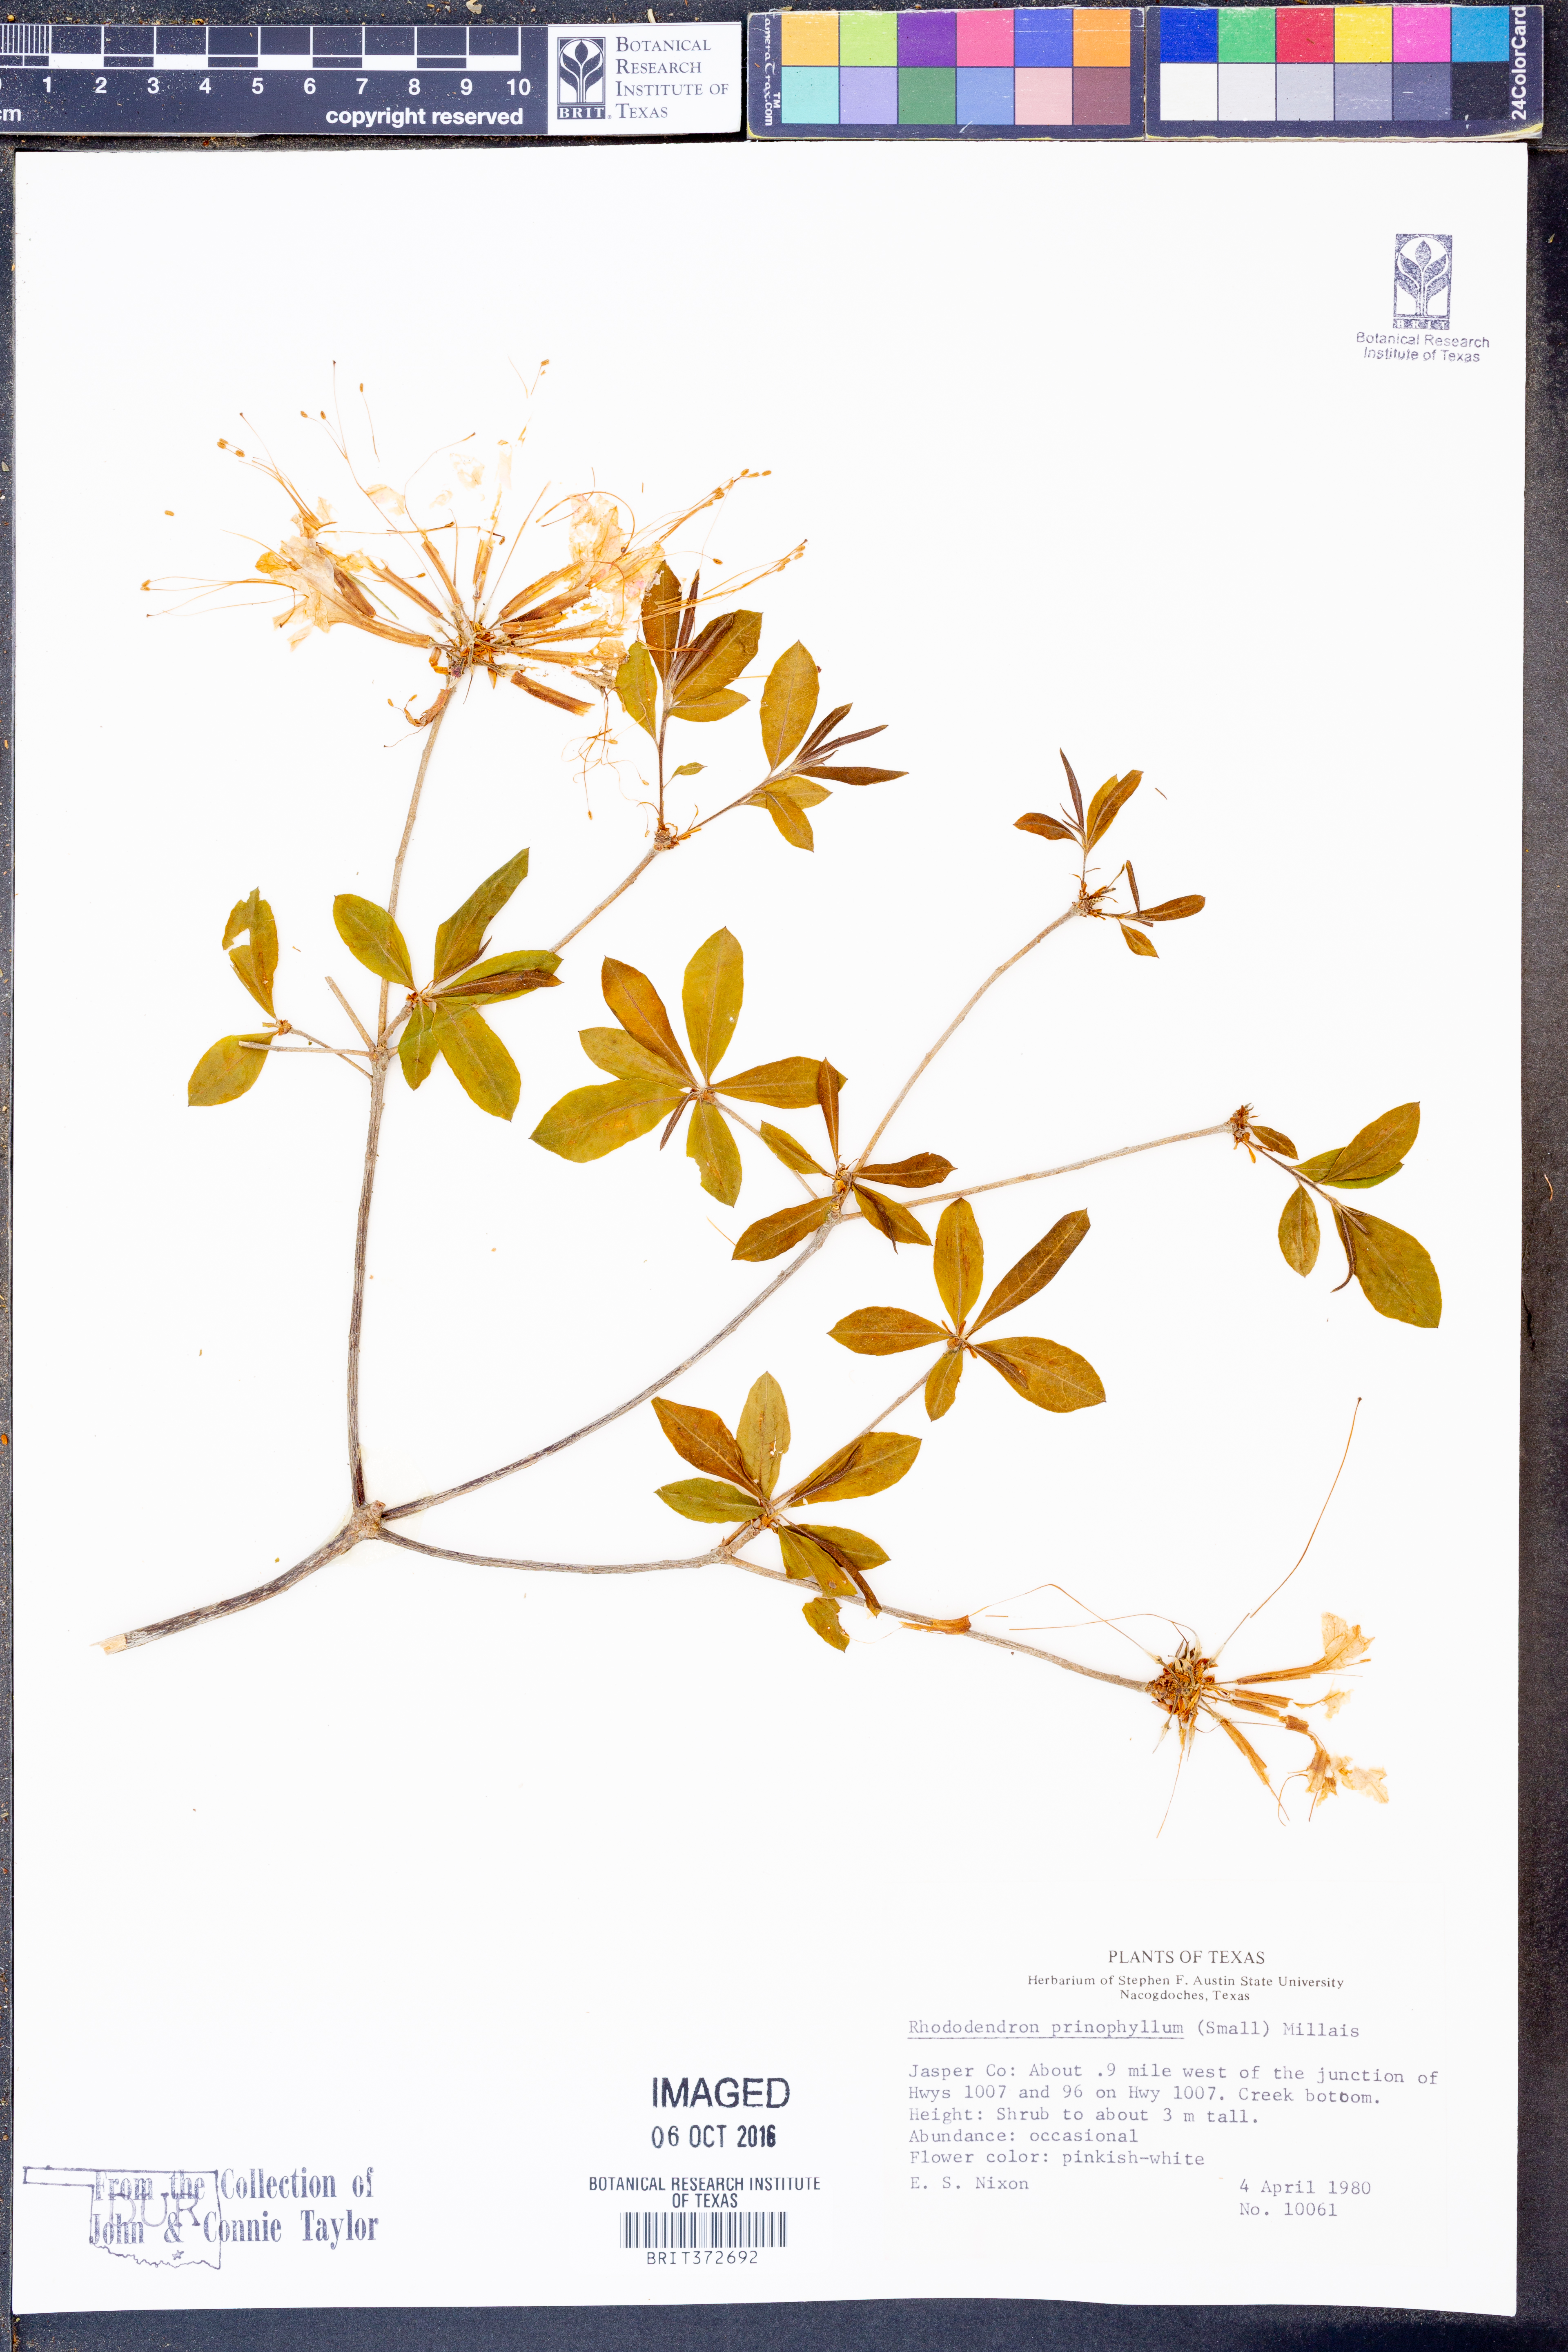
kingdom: Plantae
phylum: Tracheophyta
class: Magnoliopsida
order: Ericales
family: Ericaceae
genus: Rhododendron
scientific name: Rhododendron roseum
